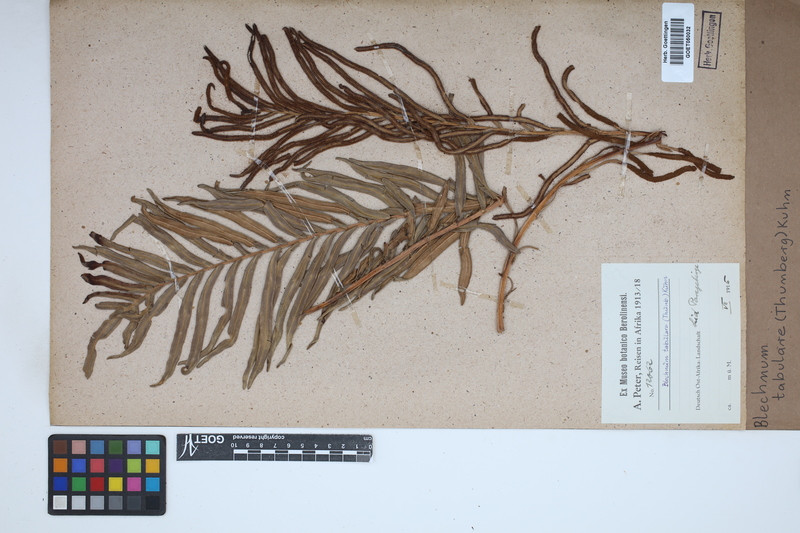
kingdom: Plantae
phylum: Tracheophyta
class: Polypodiopsida
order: Polypodiales
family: Blechnaceae
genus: Lomariocycas
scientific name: Lomariocycas tabularis
